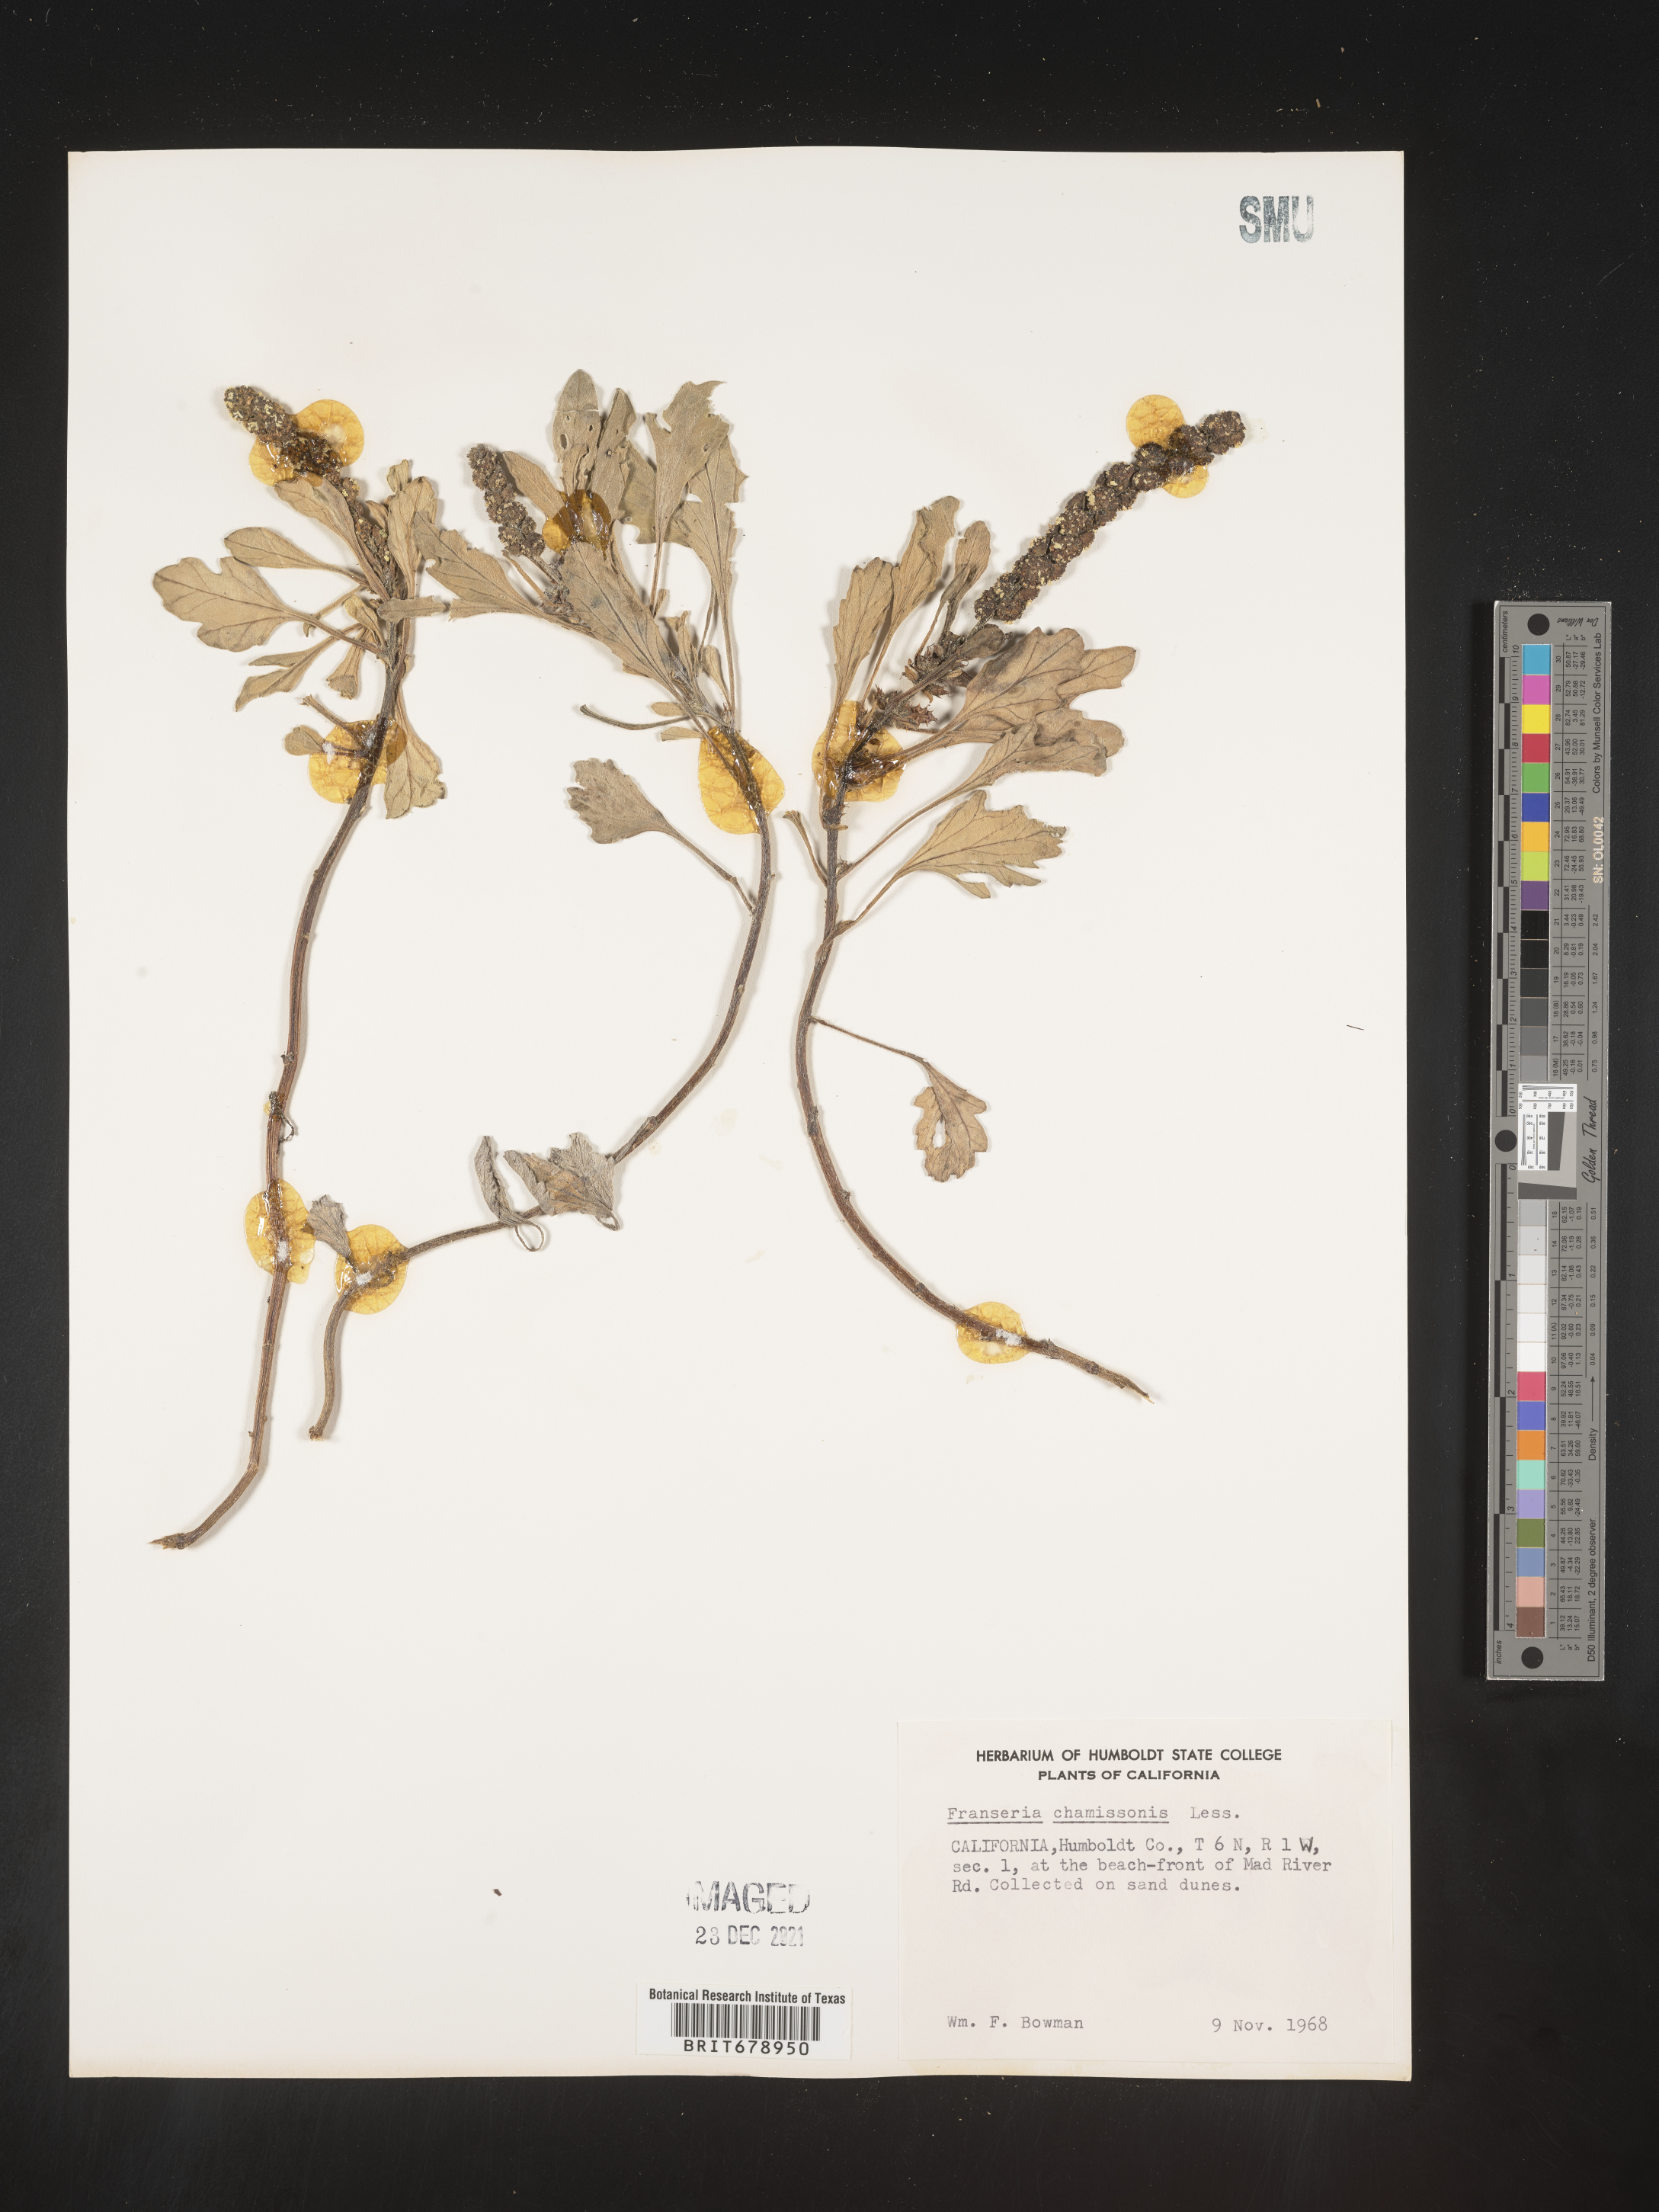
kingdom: Plantae
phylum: Tracheophyta
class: Magnoliopsida
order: Asterales
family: Asteraceae
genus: Ambrosia
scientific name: Ambrosia chamissonis
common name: Beachbur
